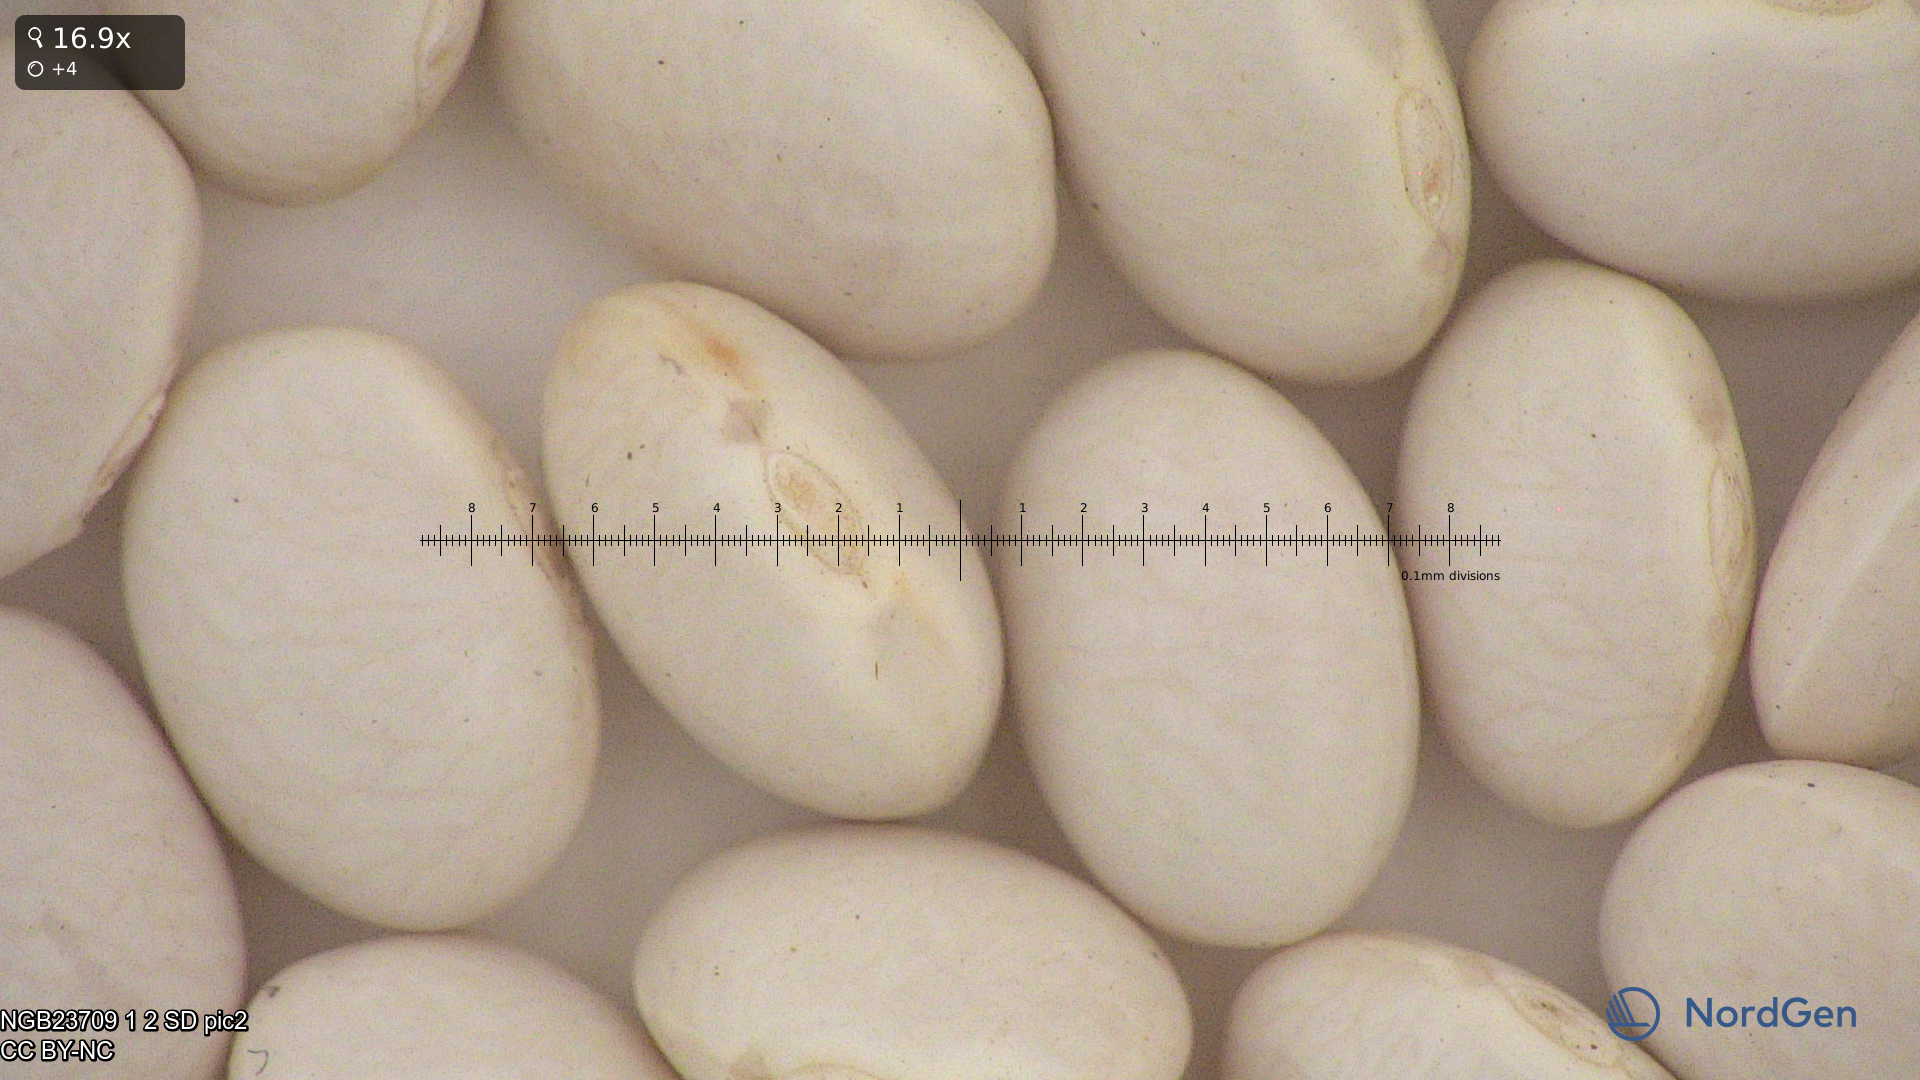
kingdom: Plantae
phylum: Tracheophyta
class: Magnoliopsida
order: Fabales
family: Fabaceae
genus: Phaseolus
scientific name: Phaseolus vulgaris
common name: Bean
